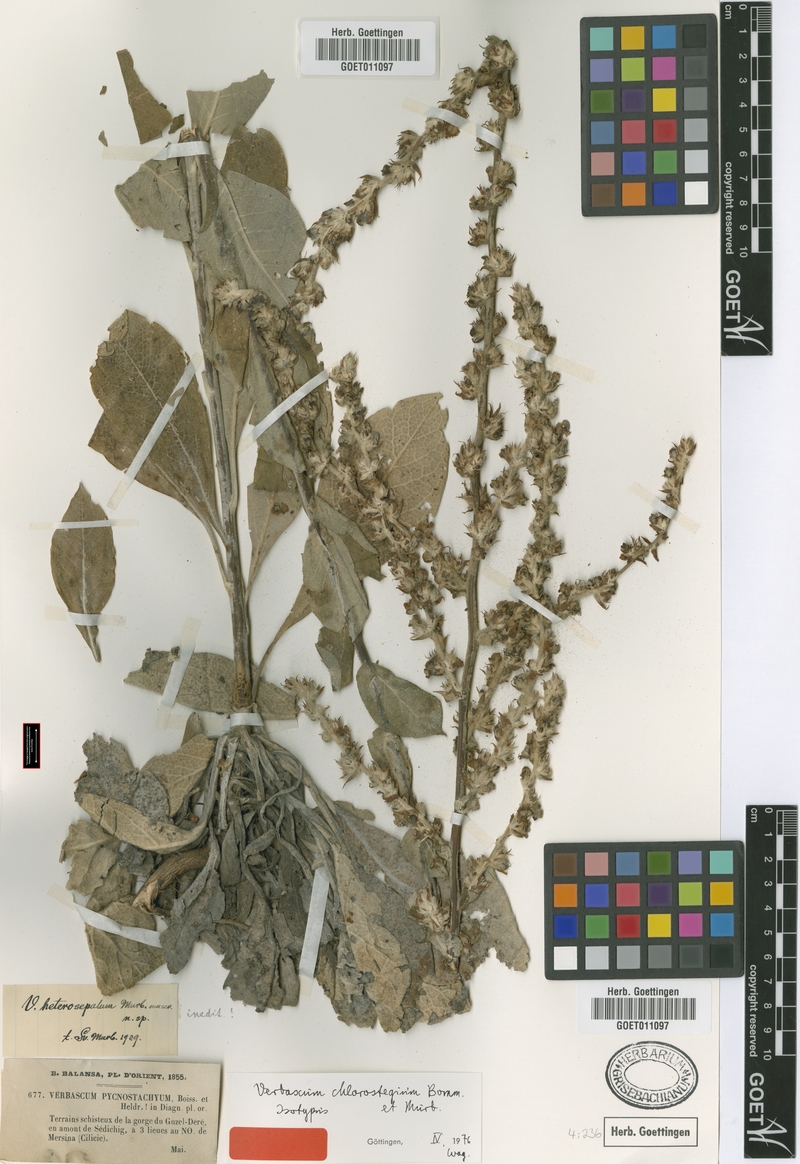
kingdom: Plantae
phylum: Tracheophyta
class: Magnoliopsida
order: Lamiales
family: Scrophulariaceae
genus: Verbascum
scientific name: Verbascum chlorostegium
